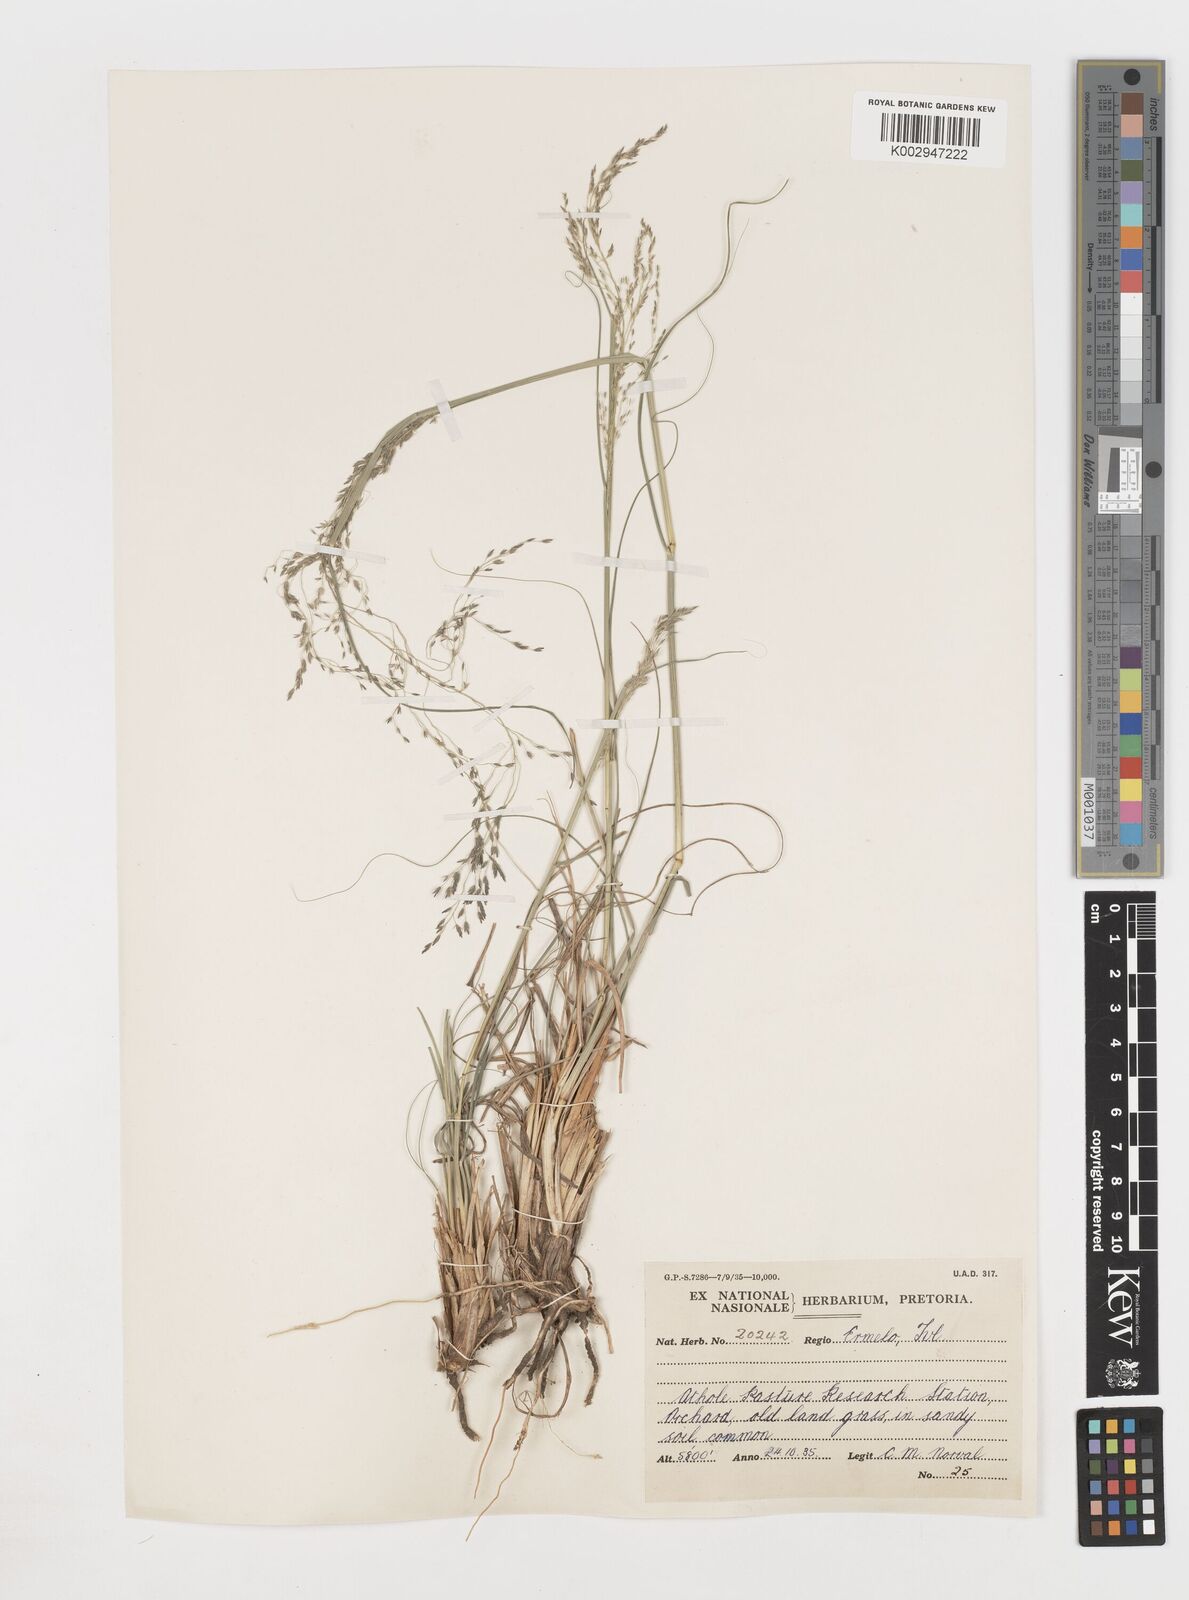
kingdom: Plantae
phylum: Tracheophyta
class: Liliopsida
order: Poales
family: Poaceae
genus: Eragrostis
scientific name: Eragrostis
